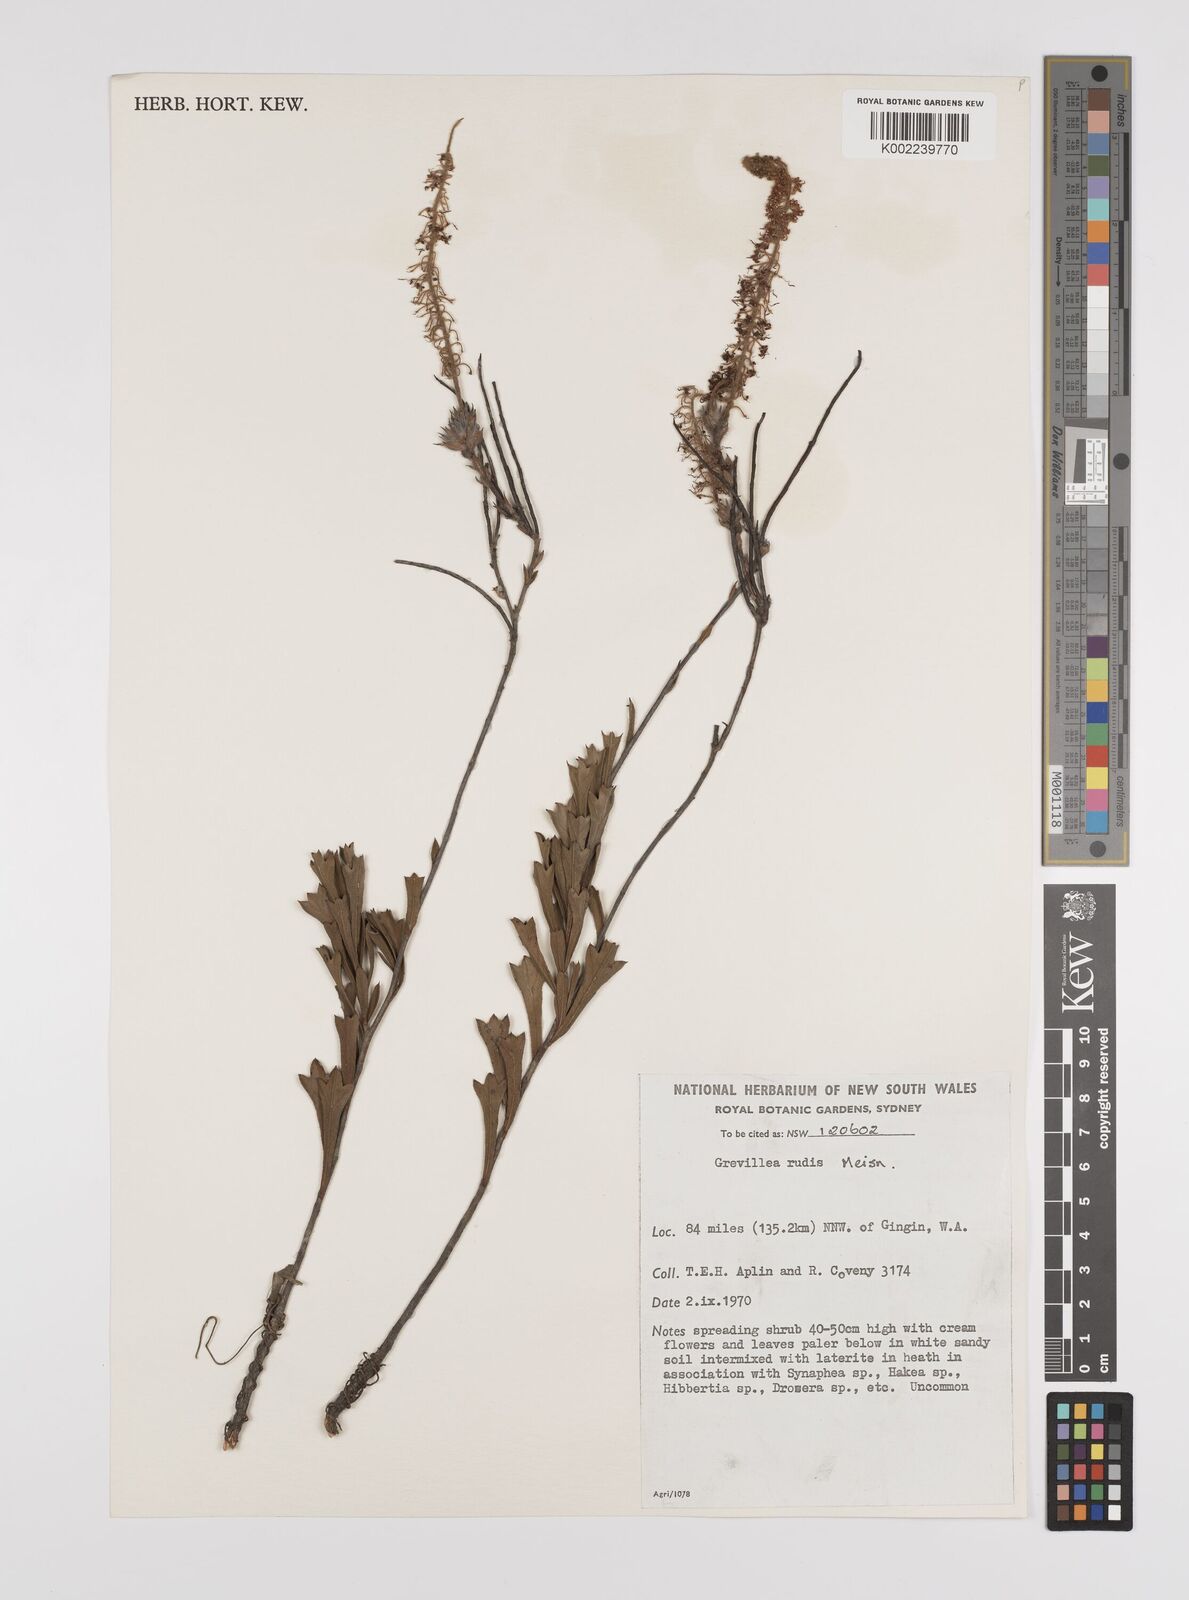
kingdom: Plantae
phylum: Tracheophyta
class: Magnoliopsida
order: Proteales
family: Proteaceae
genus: Grevillea
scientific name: Grevillea rudis
